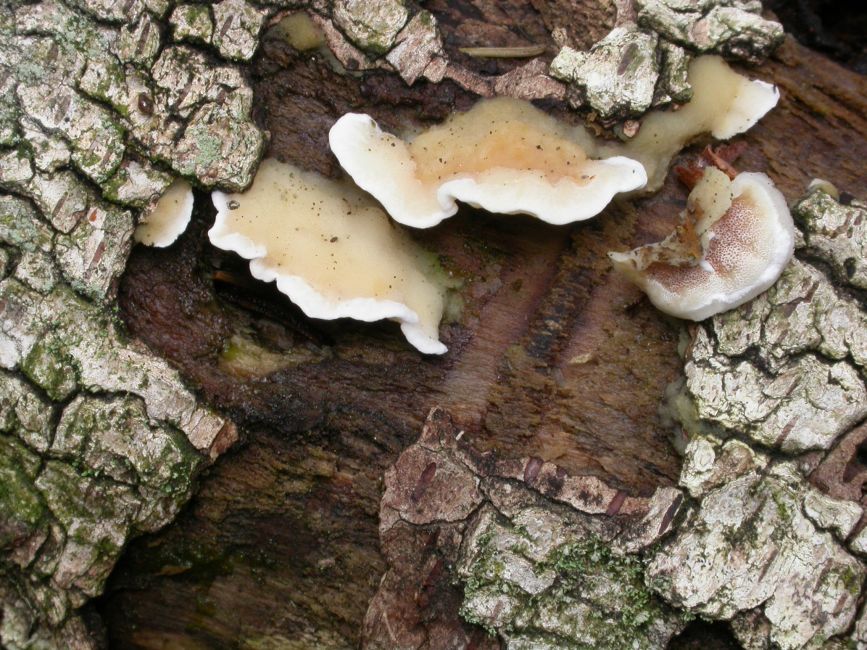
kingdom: Fungi
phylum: Basidiomycota
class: Agaricomycetes
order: Polyporales
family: Irpicaceae
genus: Vitreoporus
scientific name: Vitreoporus dichrous
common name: tofarvet foldporesvamp
